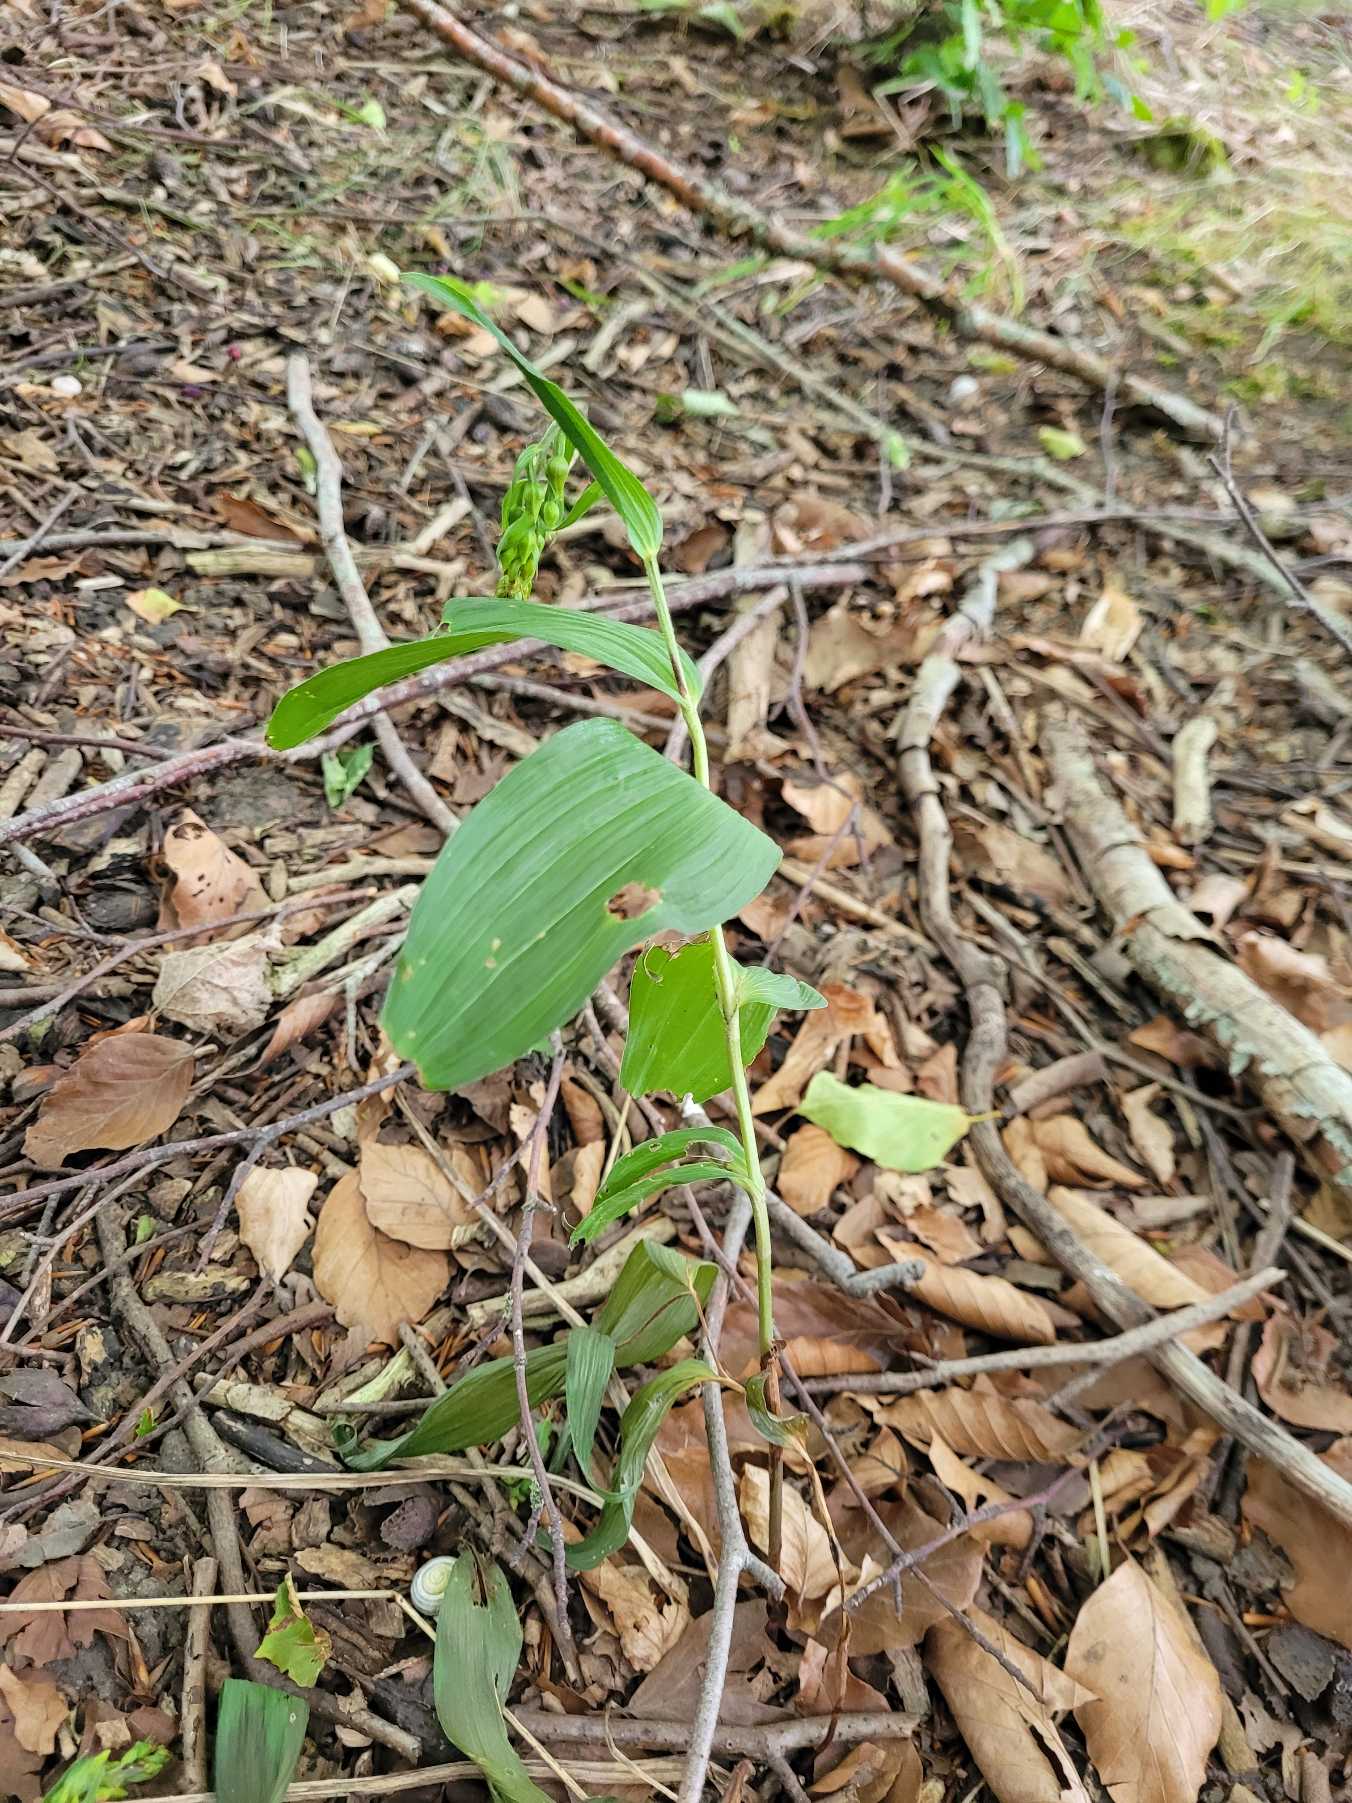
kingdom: Plantae
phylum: Tracheophyta
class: Liliopsida
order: Asparagales
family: Orchidaceae
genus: Epipactis
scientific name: Epipactis helleborine
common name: Skov-hullæbe
